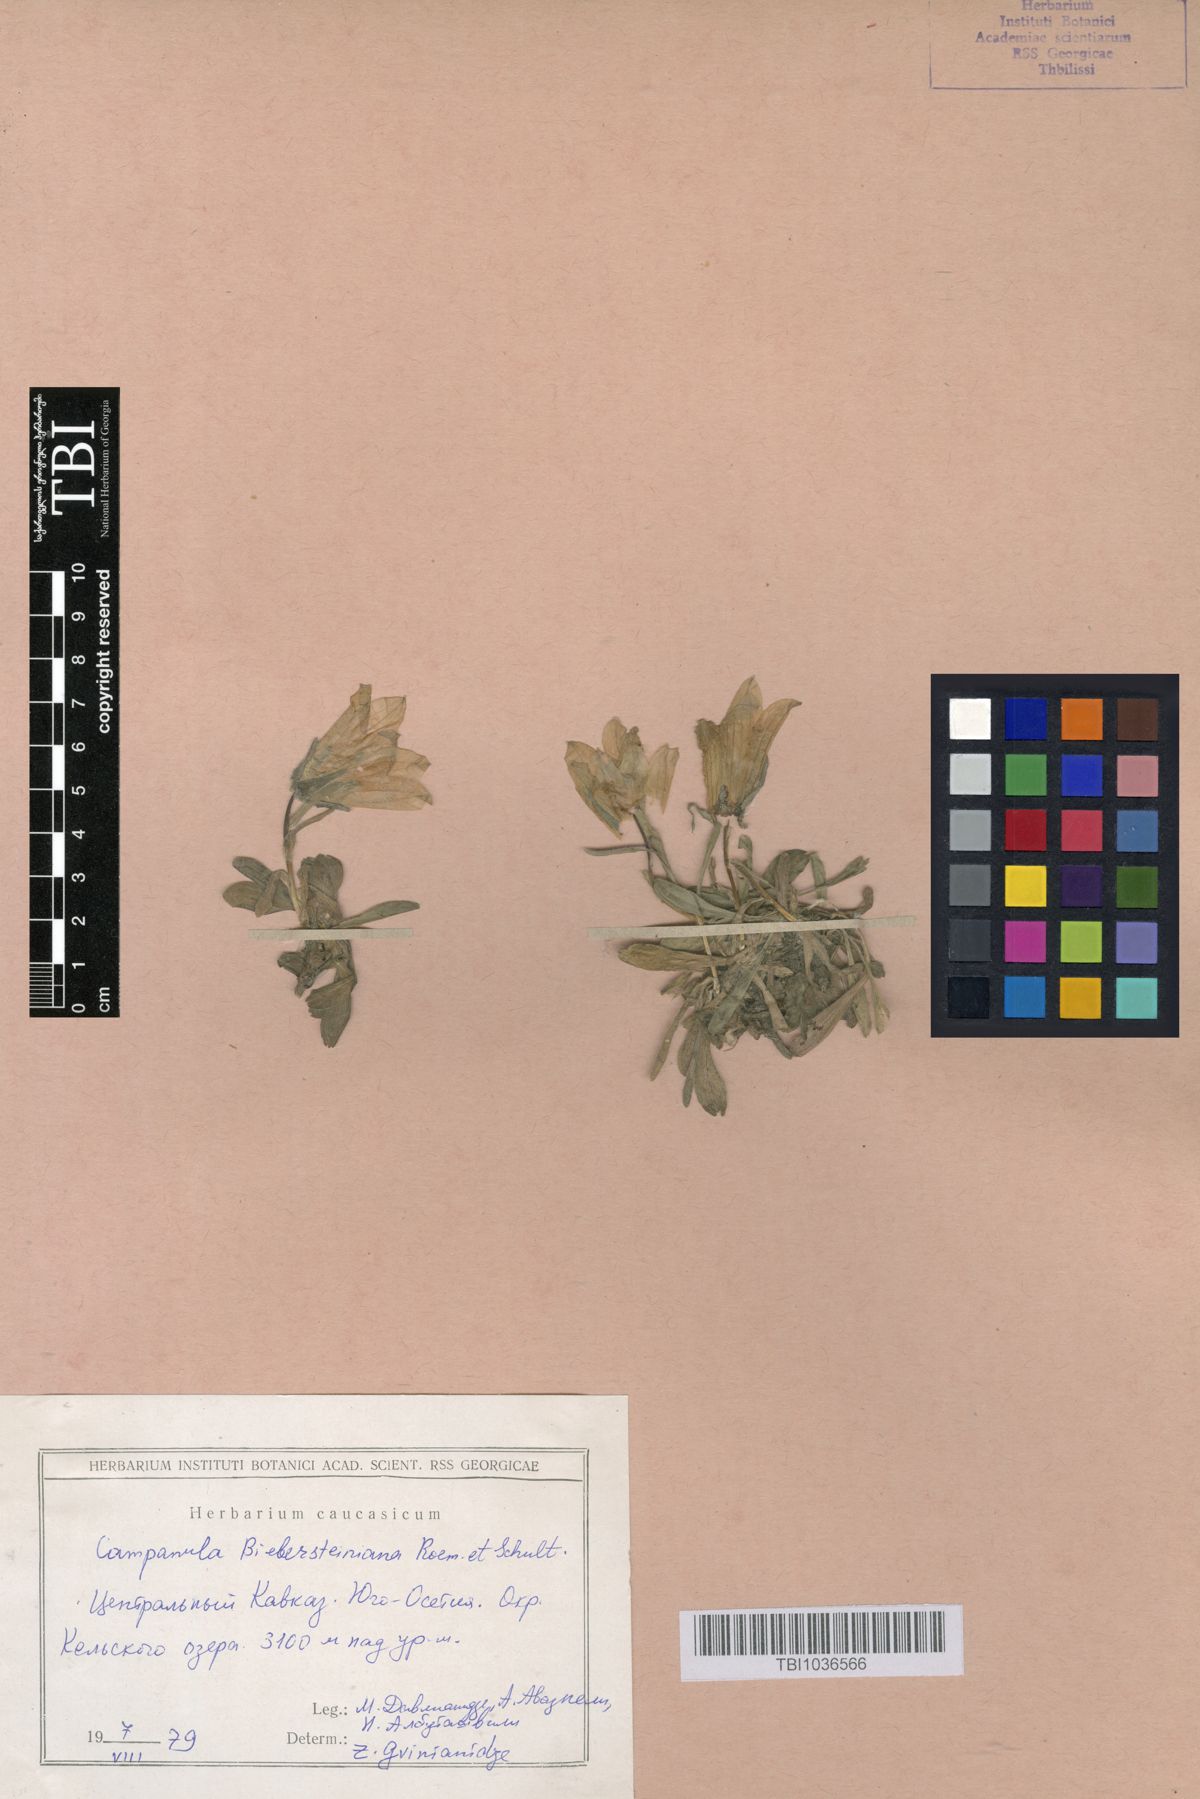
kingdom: Plantae
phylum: Tracheophyta
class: Magnoliopsida
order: Asterales
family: Campanulaceae
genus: Campanula
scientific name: Campanula tridentata
